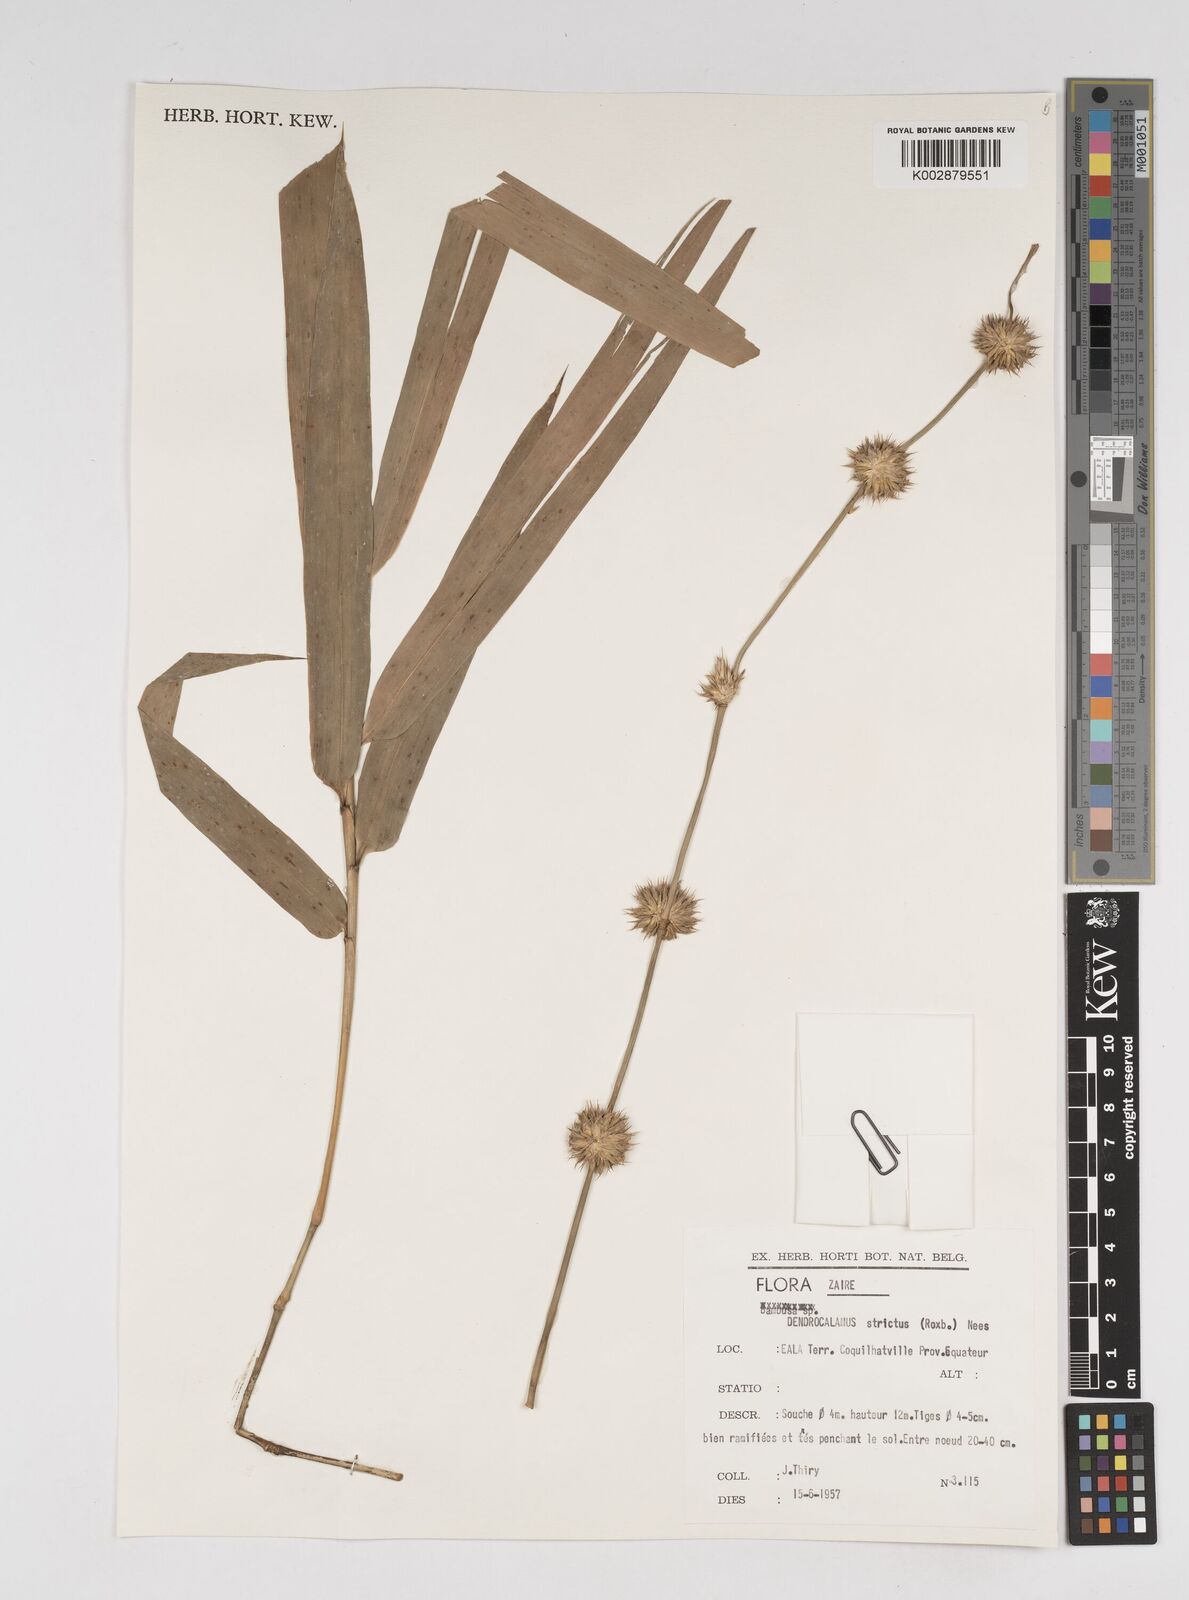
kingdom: Plantae
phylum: Tracheophyta
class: Liliopsida
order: Poales
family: Poaceae
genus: Dendrocalamus
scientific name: Dendrocalamus strictus
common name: Male bamboo
